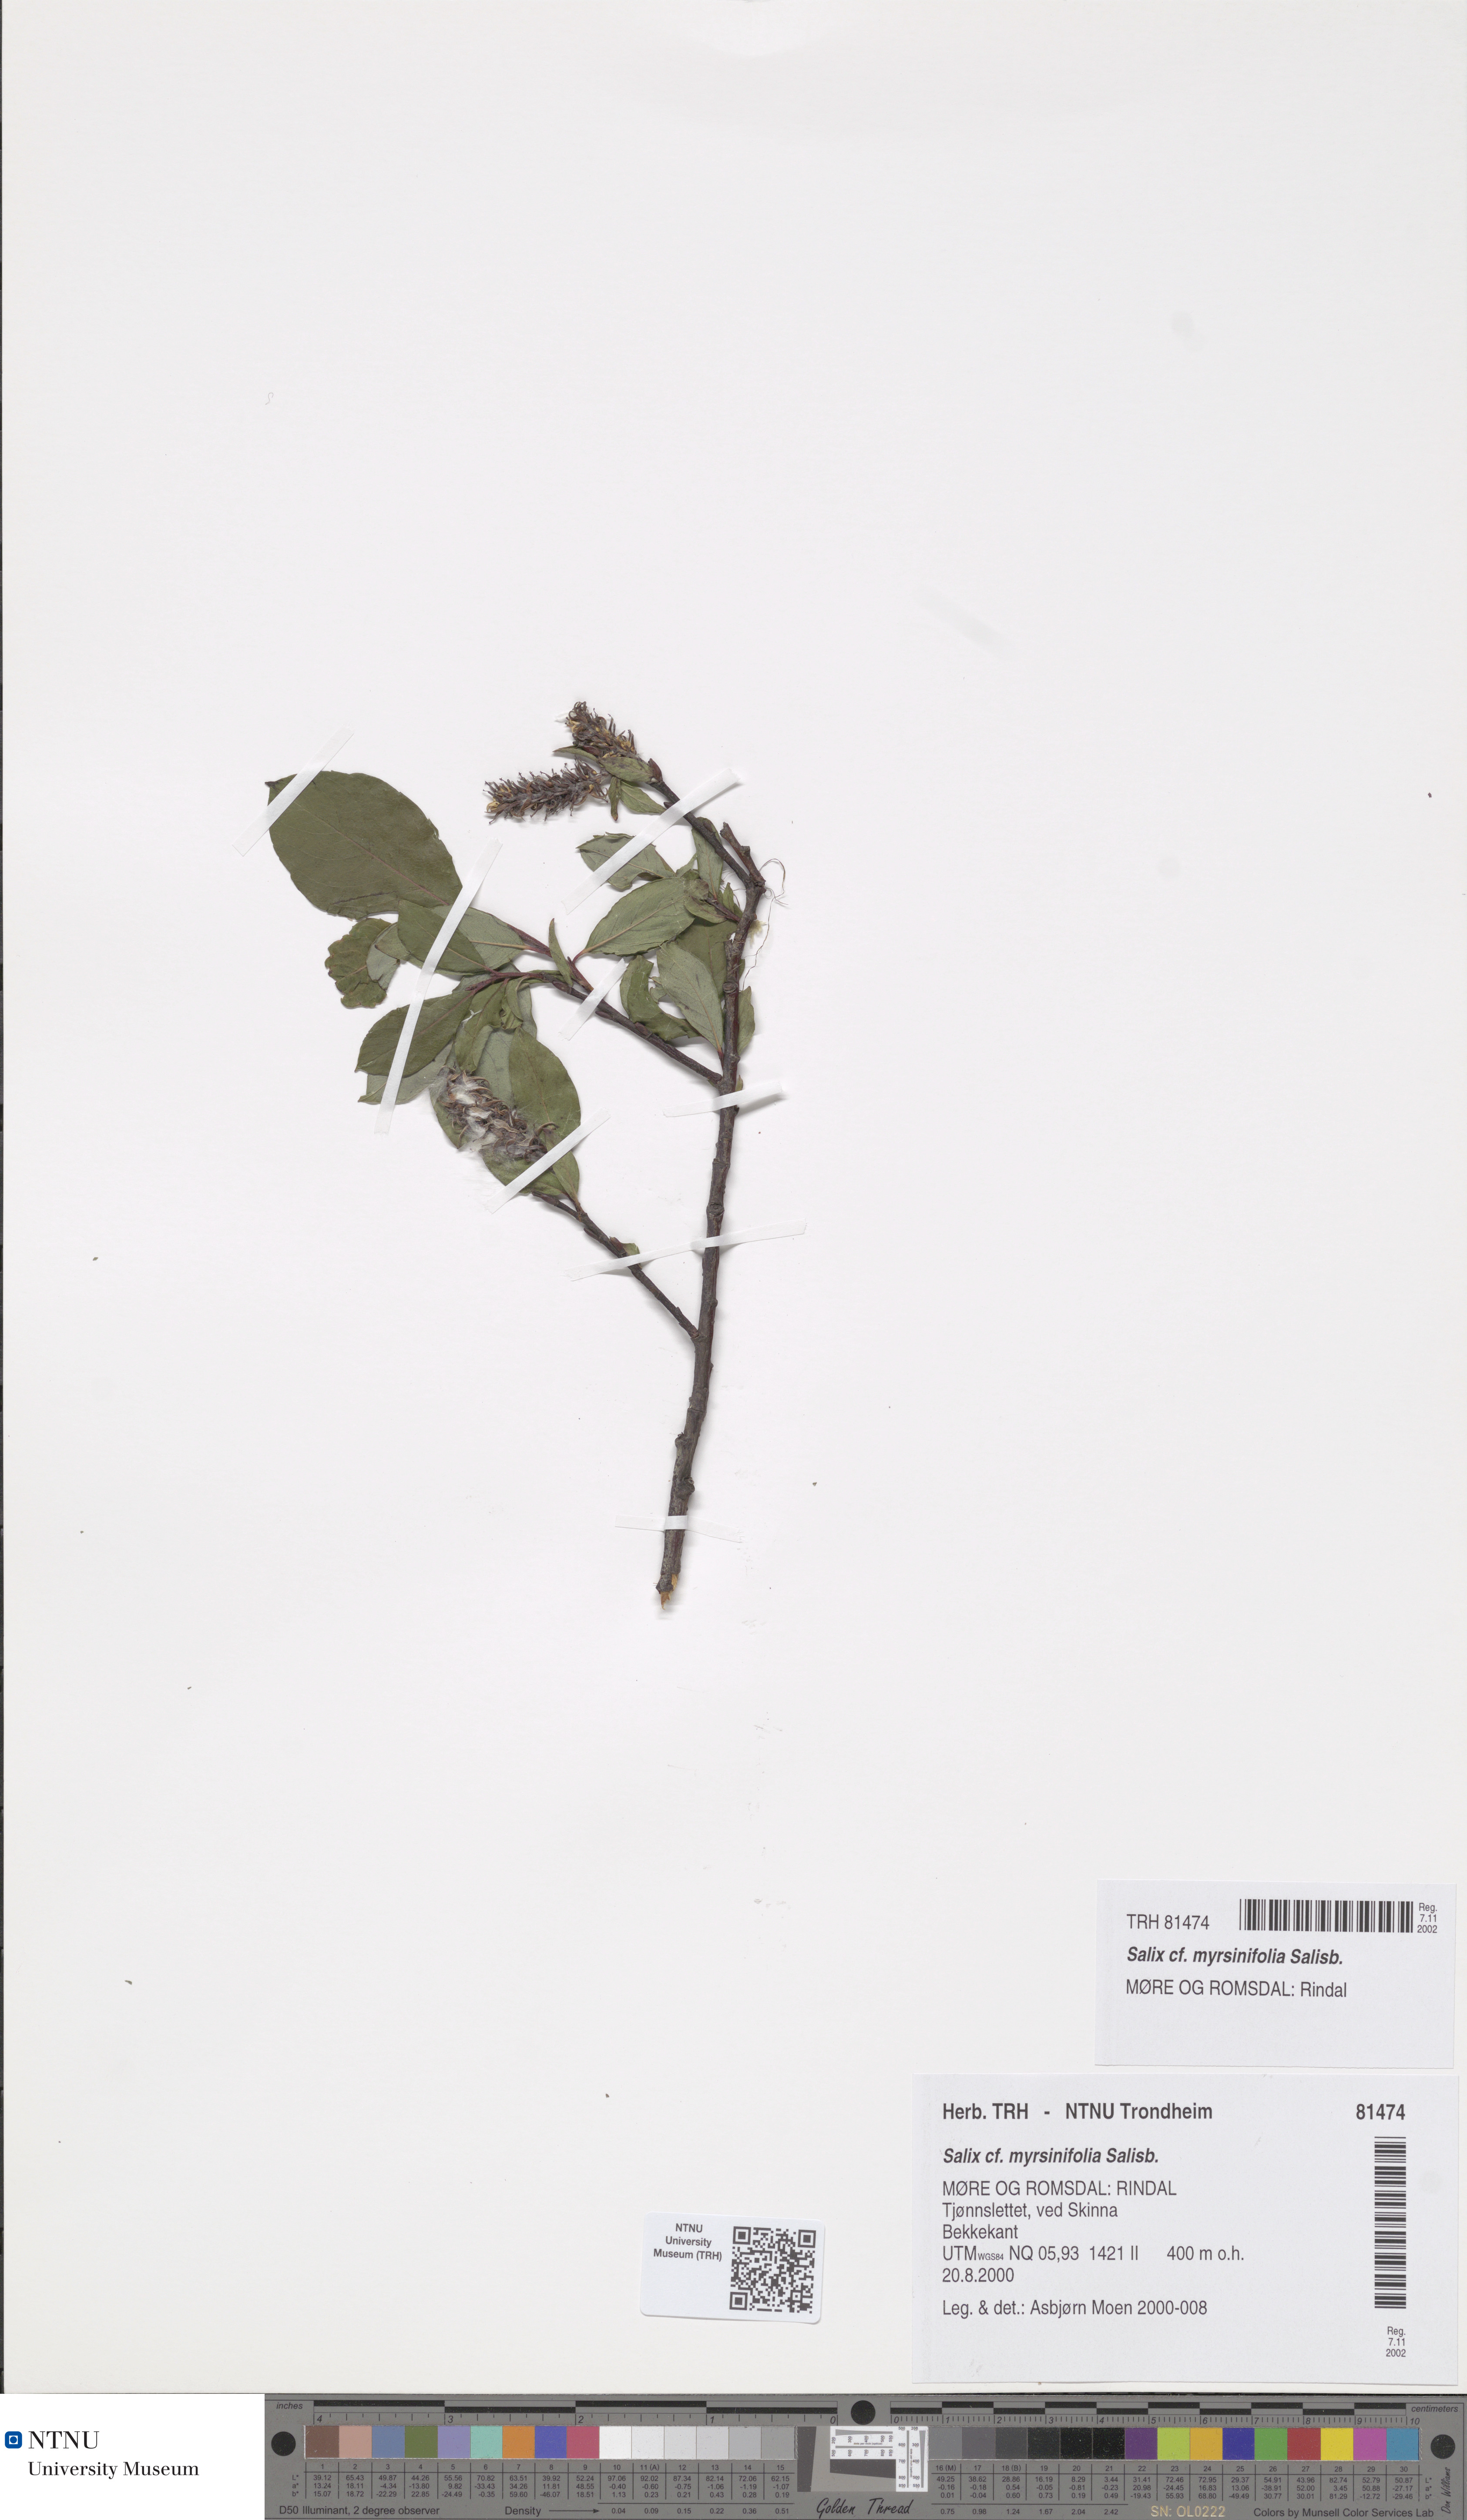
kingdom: Plantae
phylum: Tracheophyta
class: Magnoliopsida
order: Malpighiales
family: Salicaceae
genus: Salix
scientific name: Salix myrsinifolia
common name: Dark-leaved willow
